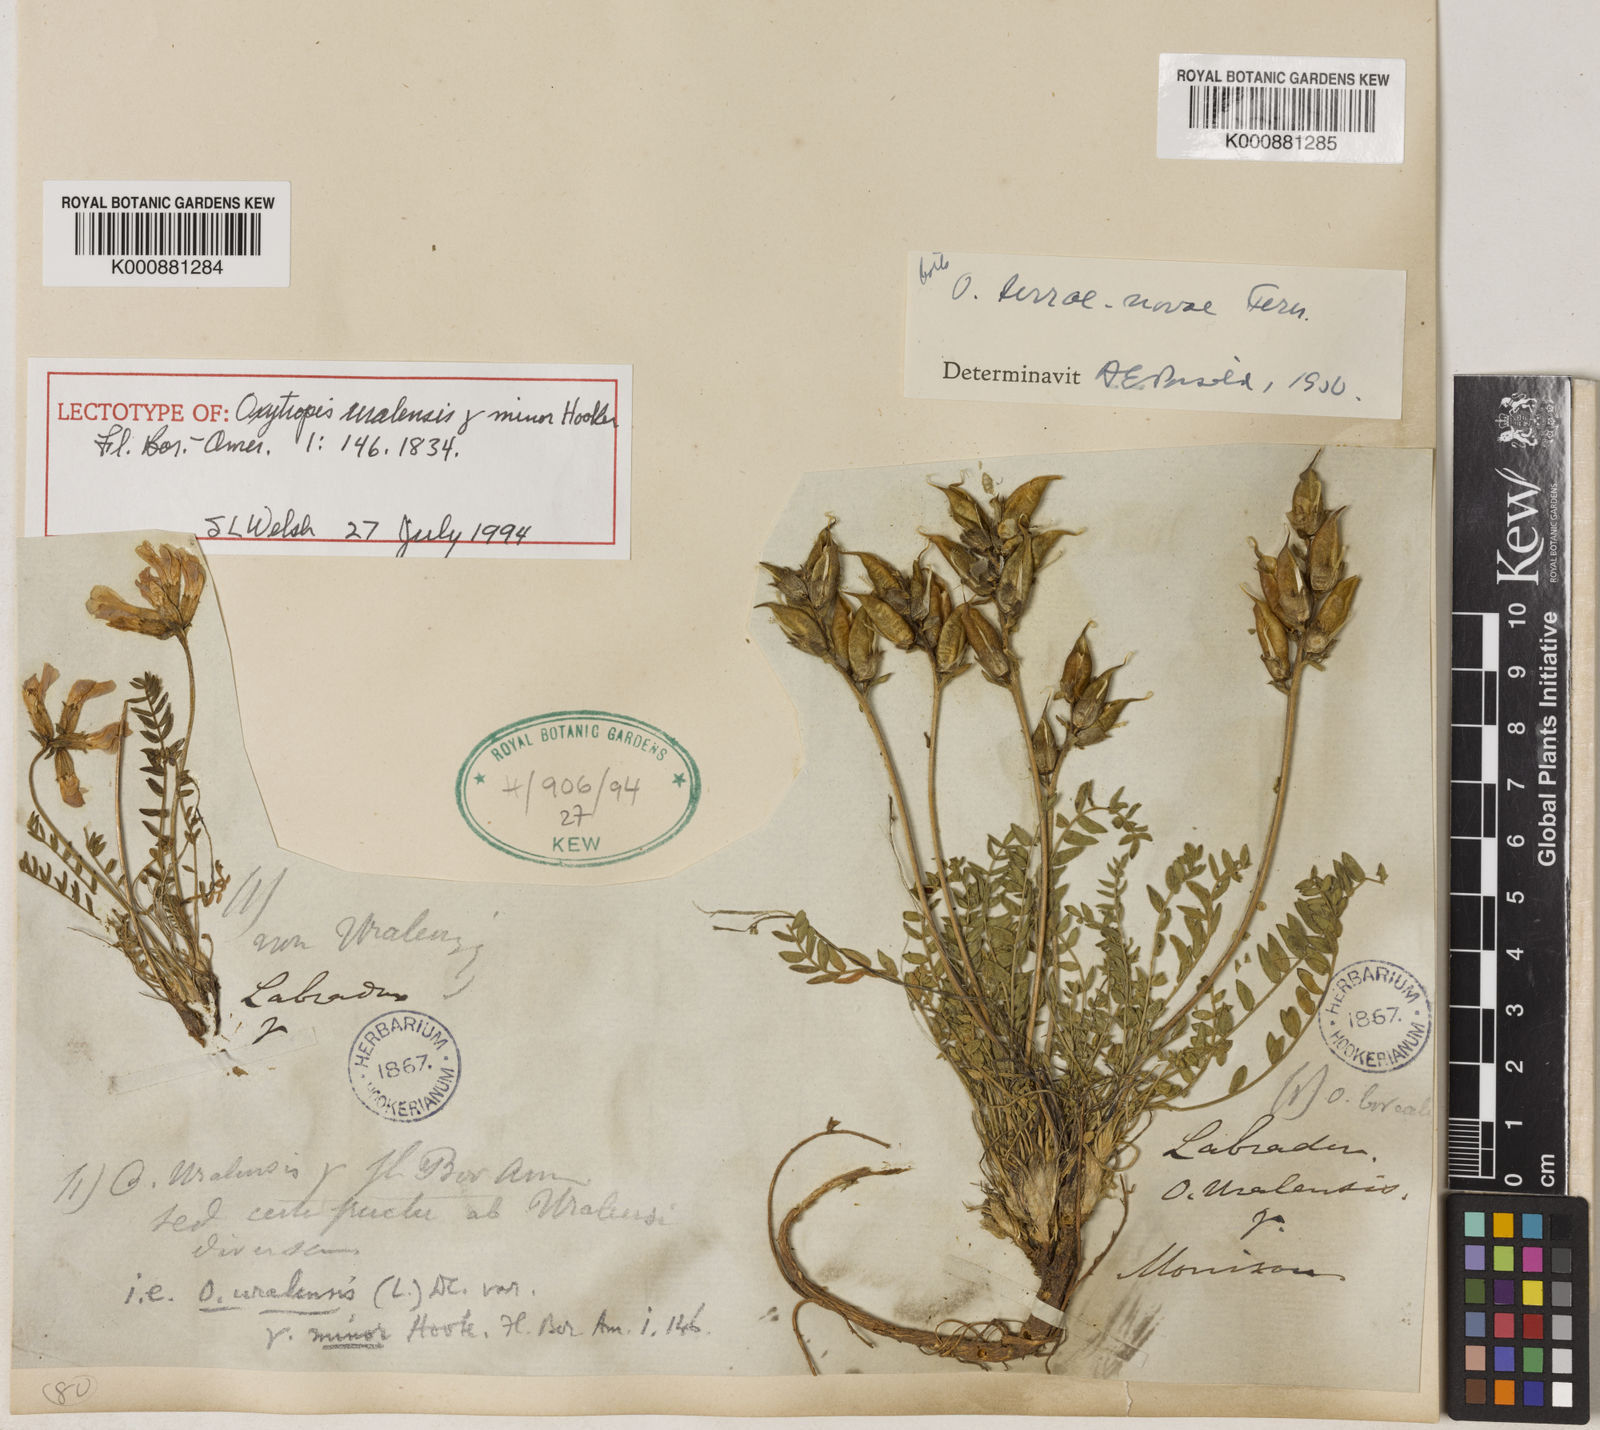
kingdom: Plantae
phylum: Tracheophyta
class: Magnoliopsida
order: Fabales
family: Fabaceae
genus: Oxytropis
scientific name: Oxytropis uralensis
